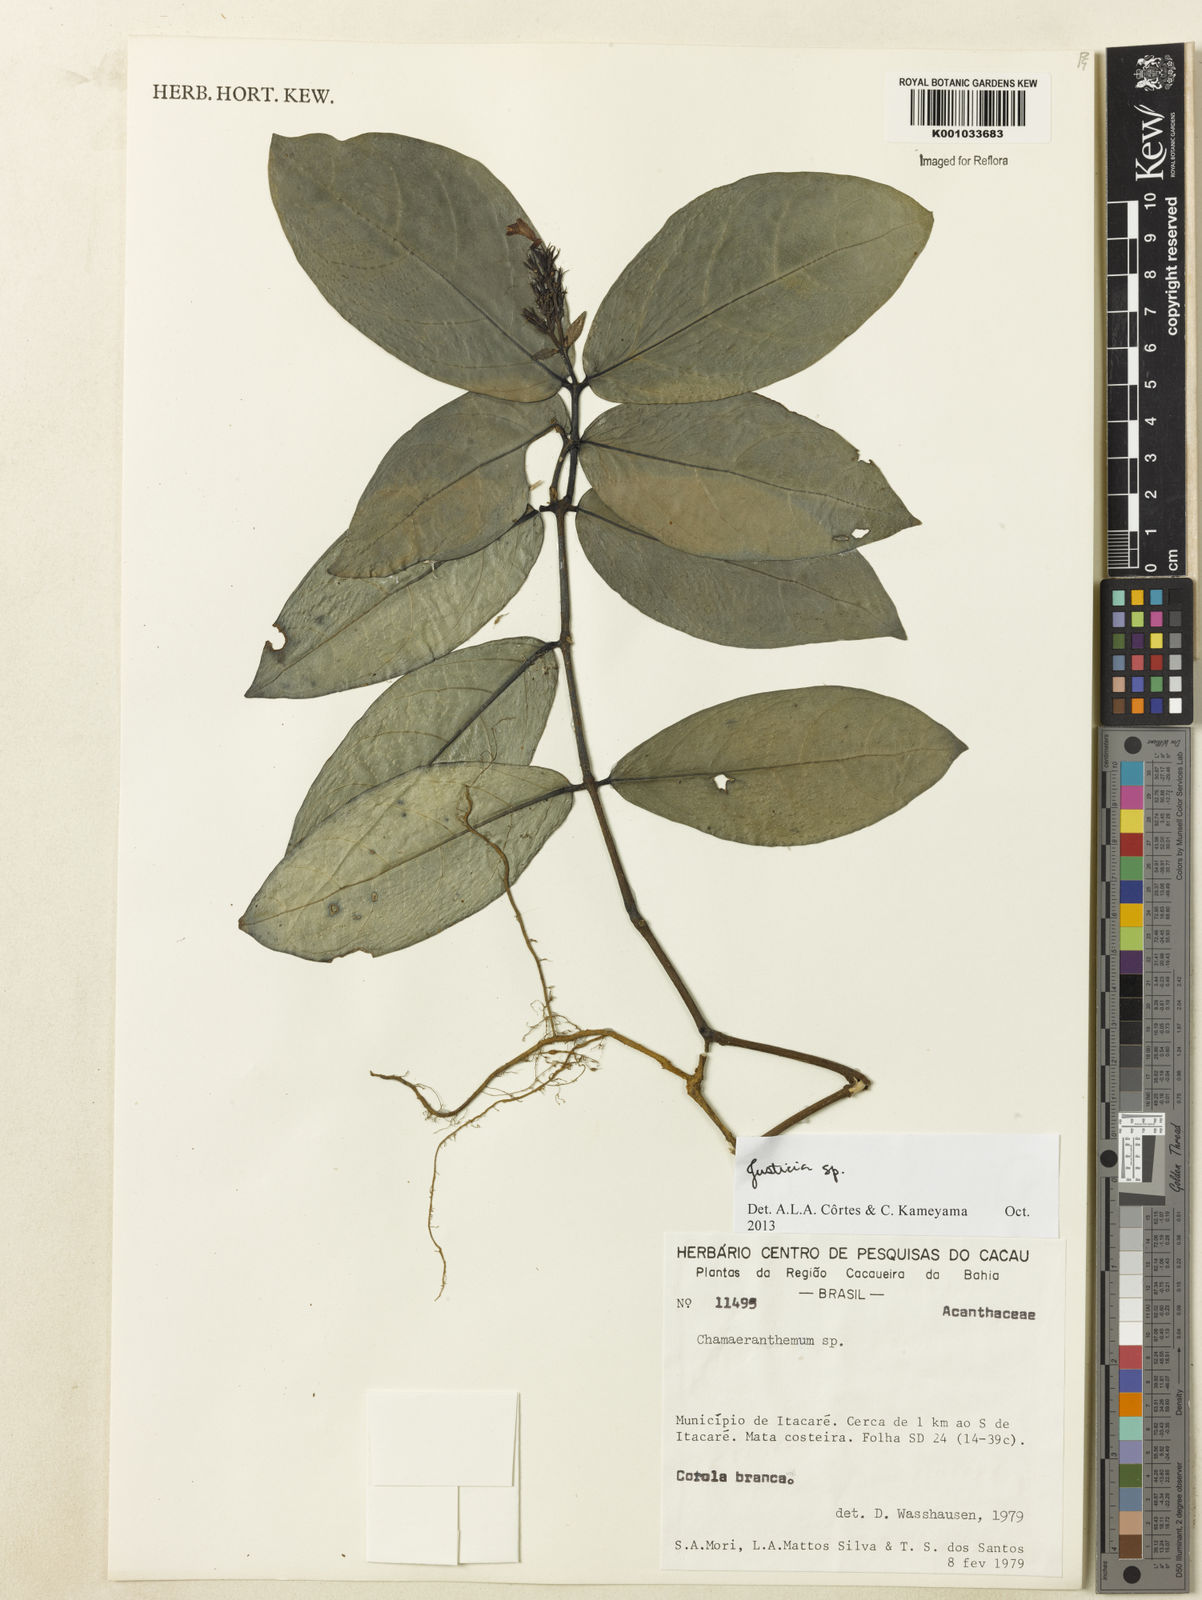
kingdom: Plantae
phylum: Tracheophyta
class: Magnoliopsida
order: Lamiales
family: Acanthaceae
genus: Justicia
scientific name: Justicia
